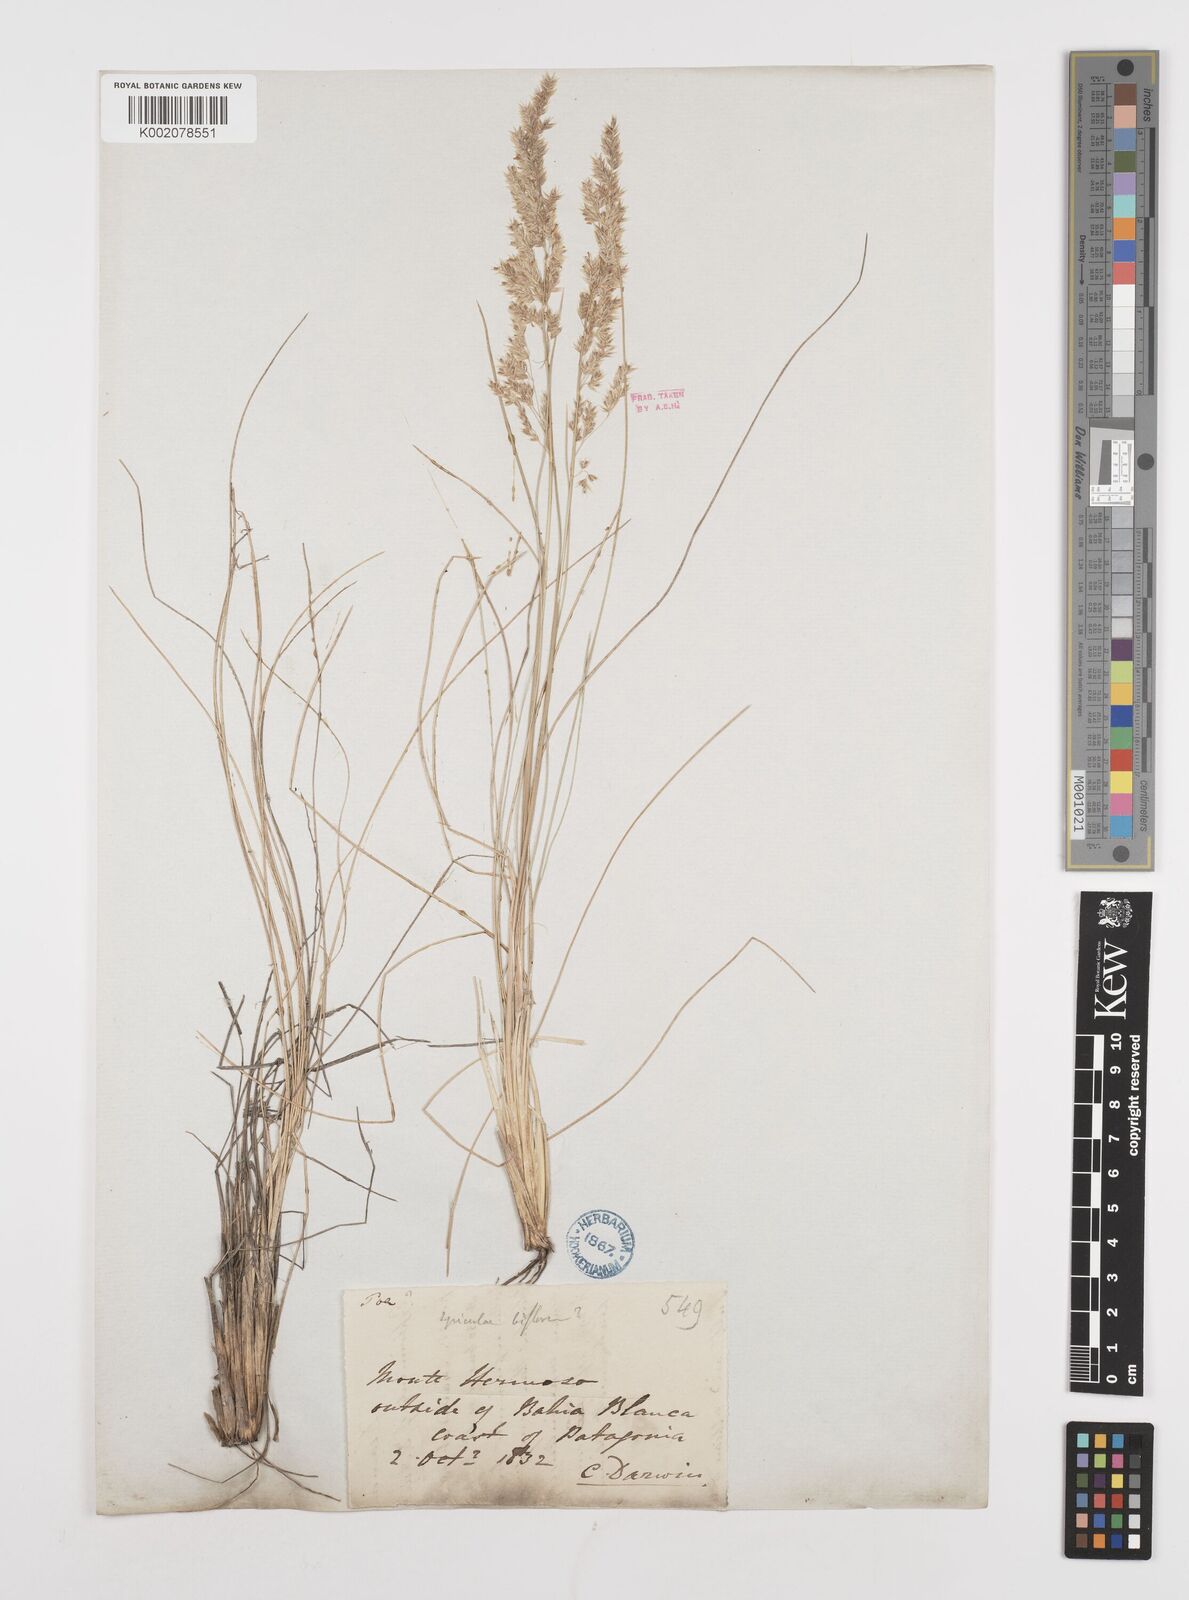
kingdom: Plantae
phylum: Tracheophyta
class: Liliopsida
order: Poales
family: Poaceae
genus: Poa
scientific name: Poa lanuginosa
